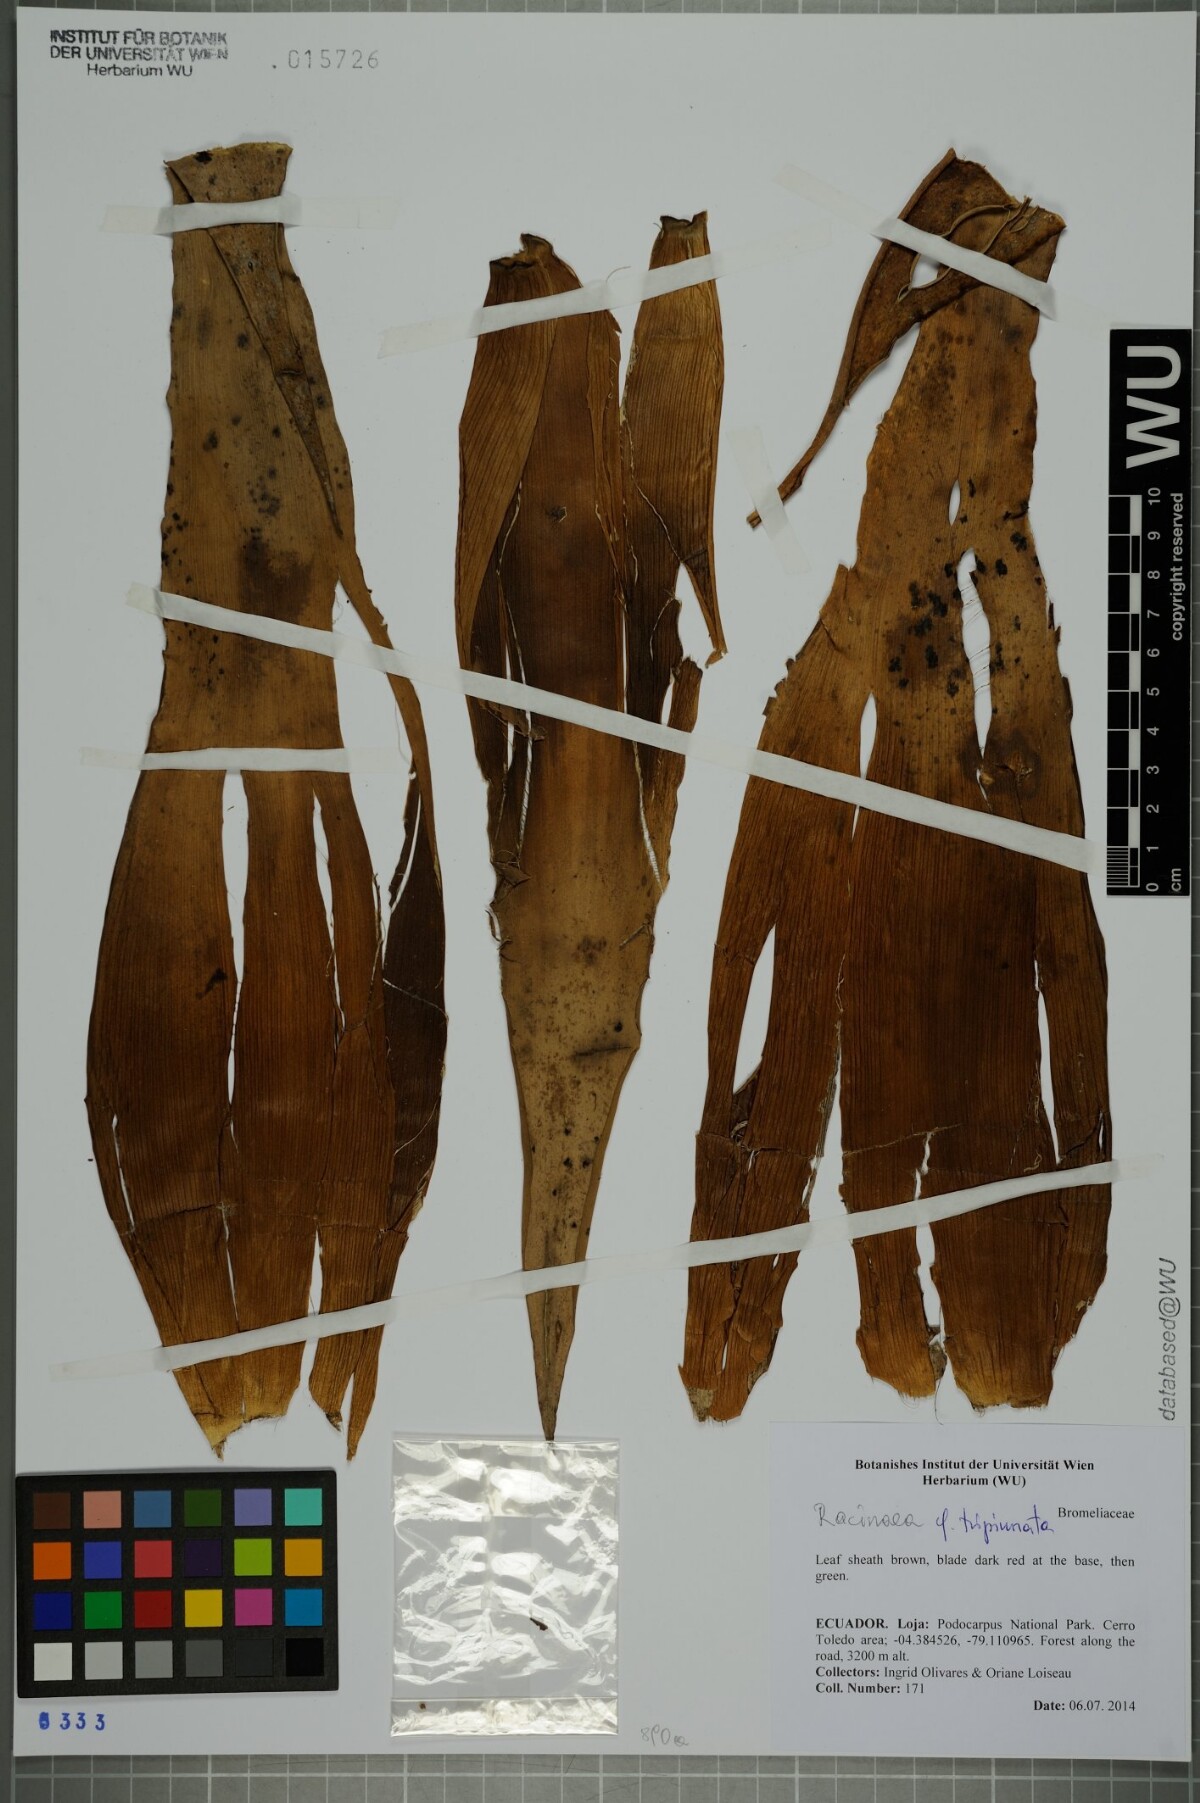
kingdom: Plantae
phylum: Tracheophyta
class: Liliopsida
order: Poales
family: Bromeliaceae
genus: Racinaea
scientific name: Racinaea tripinnata
